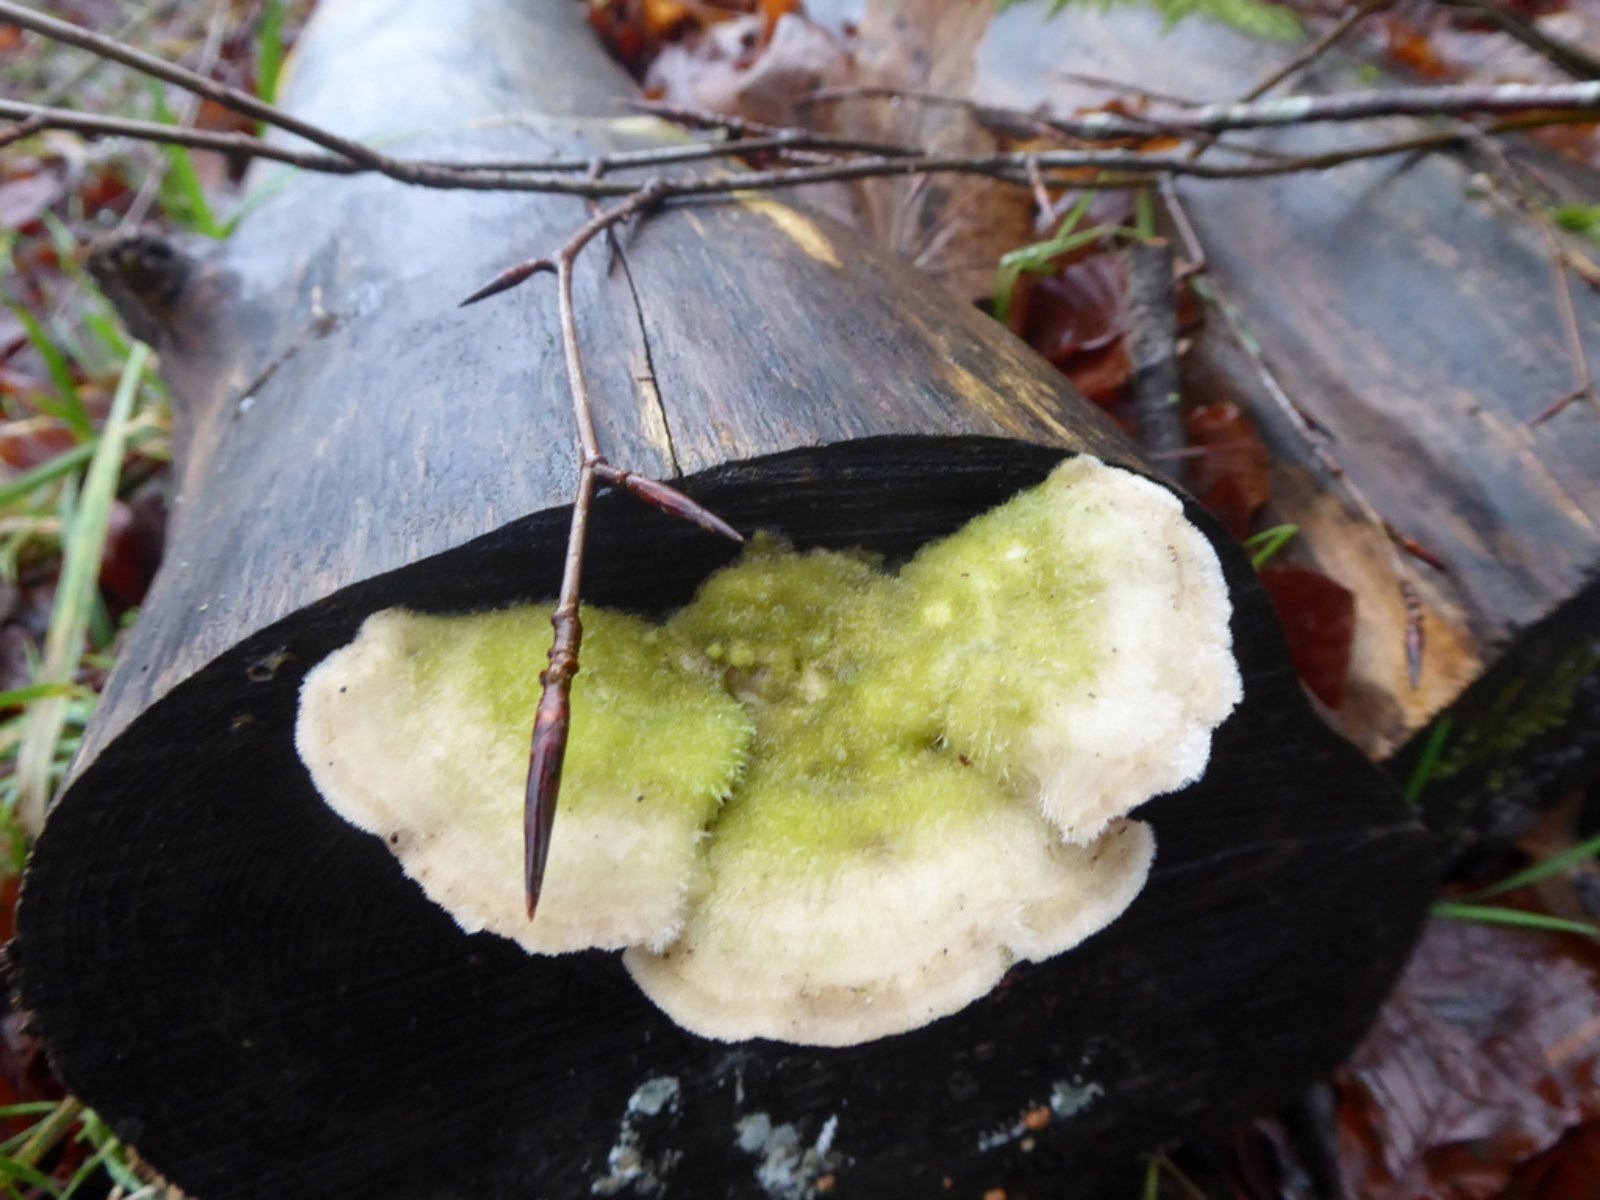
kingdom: Fungi
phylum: Basidiomycota
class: Agaricomycetes
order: Polyporales
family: Polyporaceae
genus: Trametes
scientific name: Trametes hirsuta
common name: håret læderporesvamp
